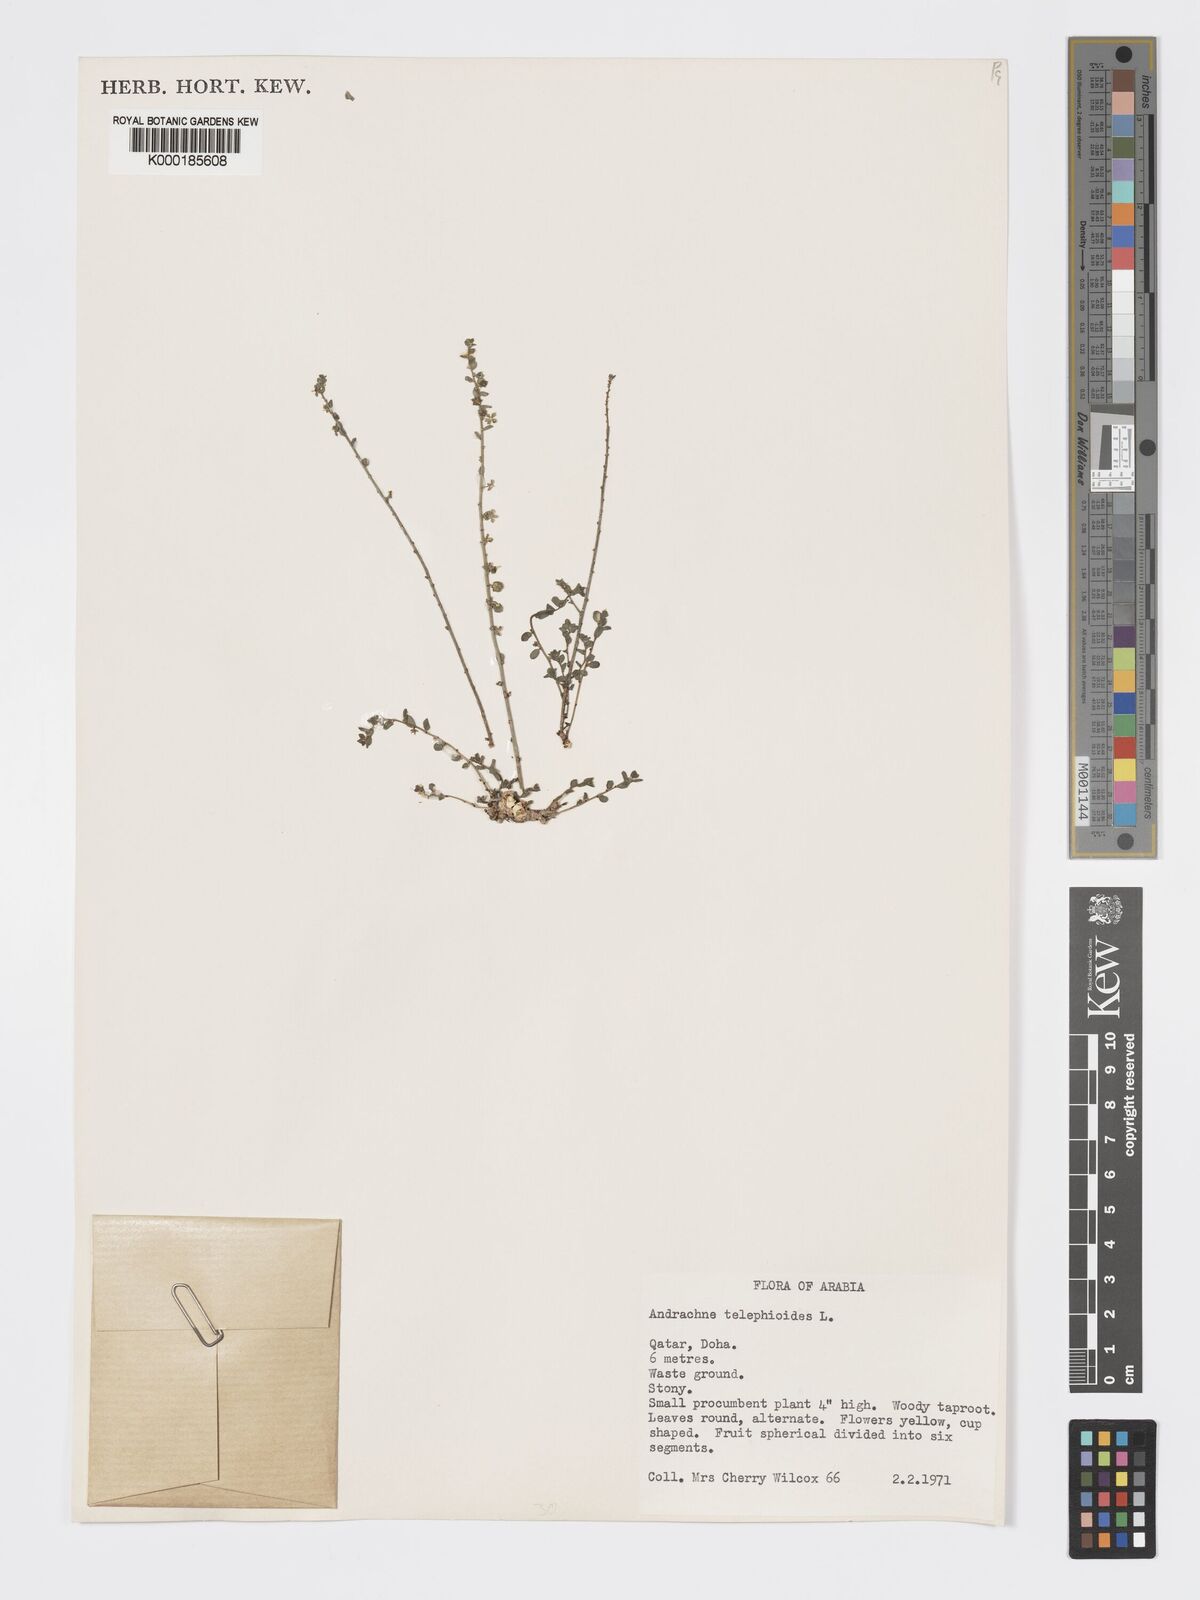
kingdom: Plantae
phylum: Tracheophyta
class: Magnoliopsida
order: Malpighiales
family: Phyllanthaceae
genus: Andrachne
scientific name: Andrachne telephioides
